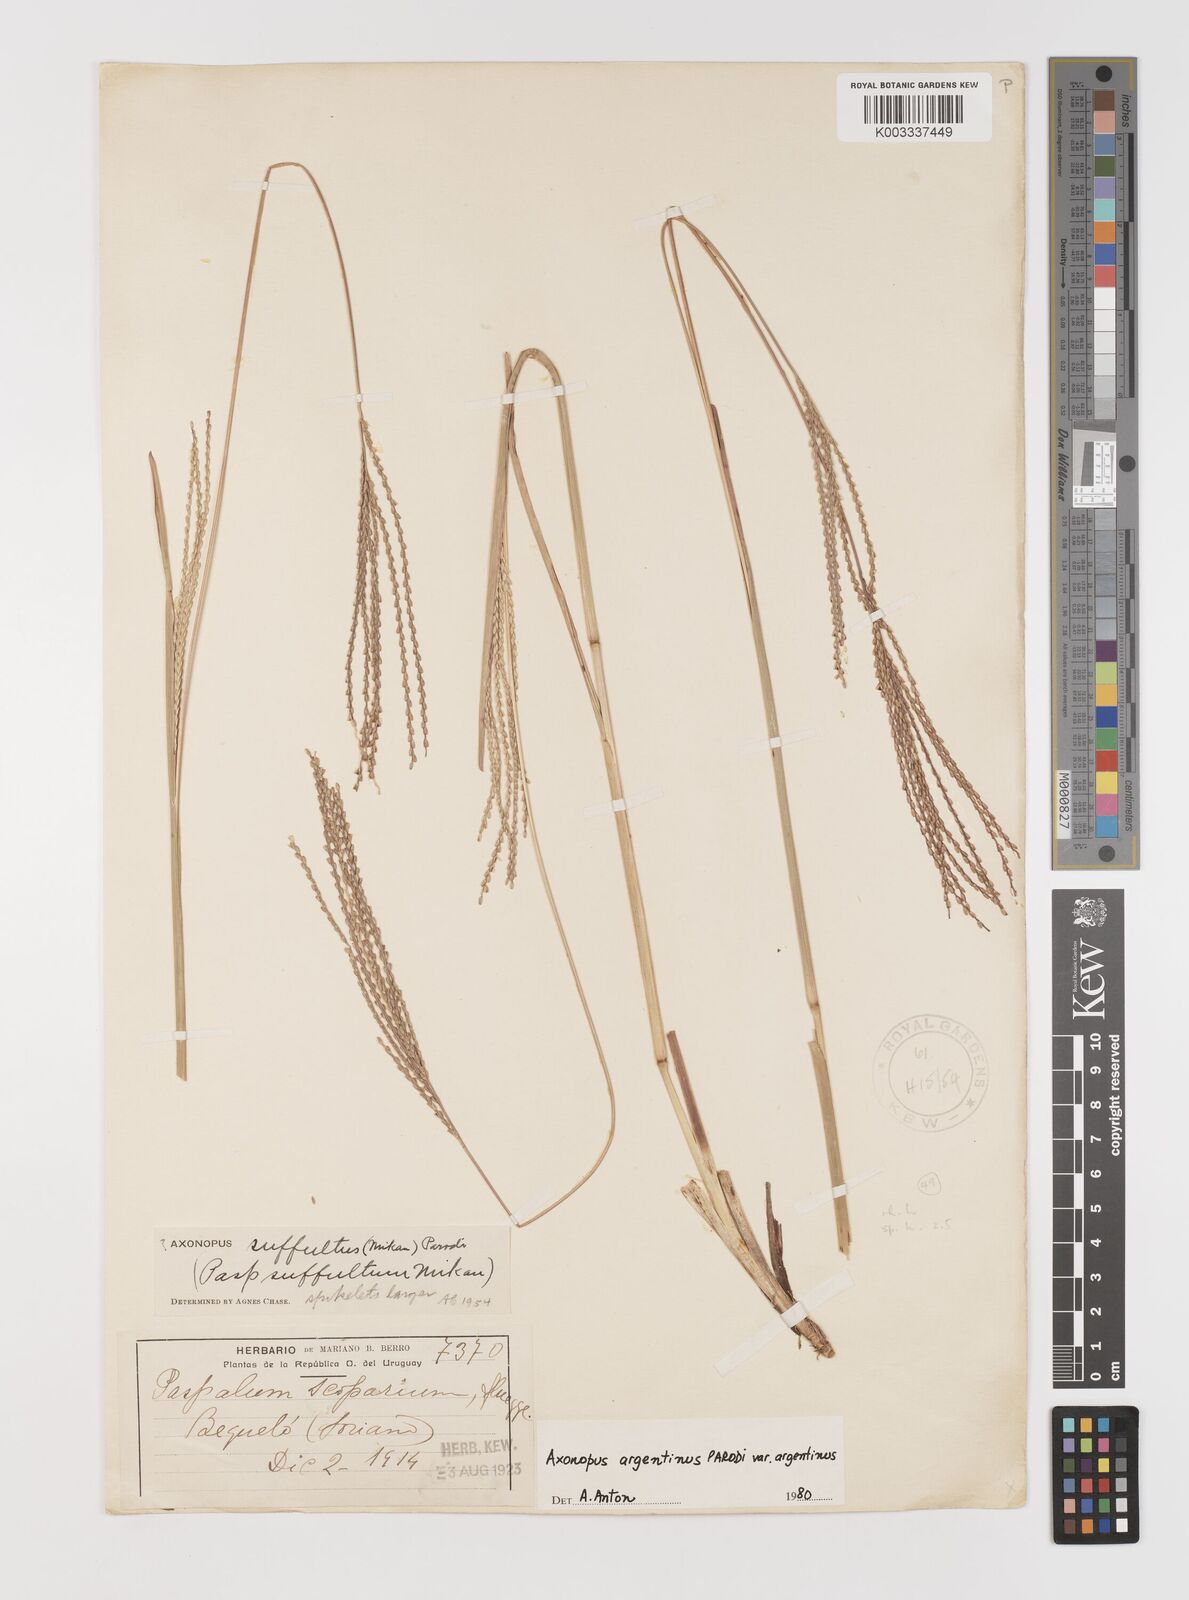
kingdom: Plantae
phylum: Tracheophyta
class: Liliopsida
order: Poales
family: Poaceae
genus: Axonopus
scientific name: Axonopus argentinus
